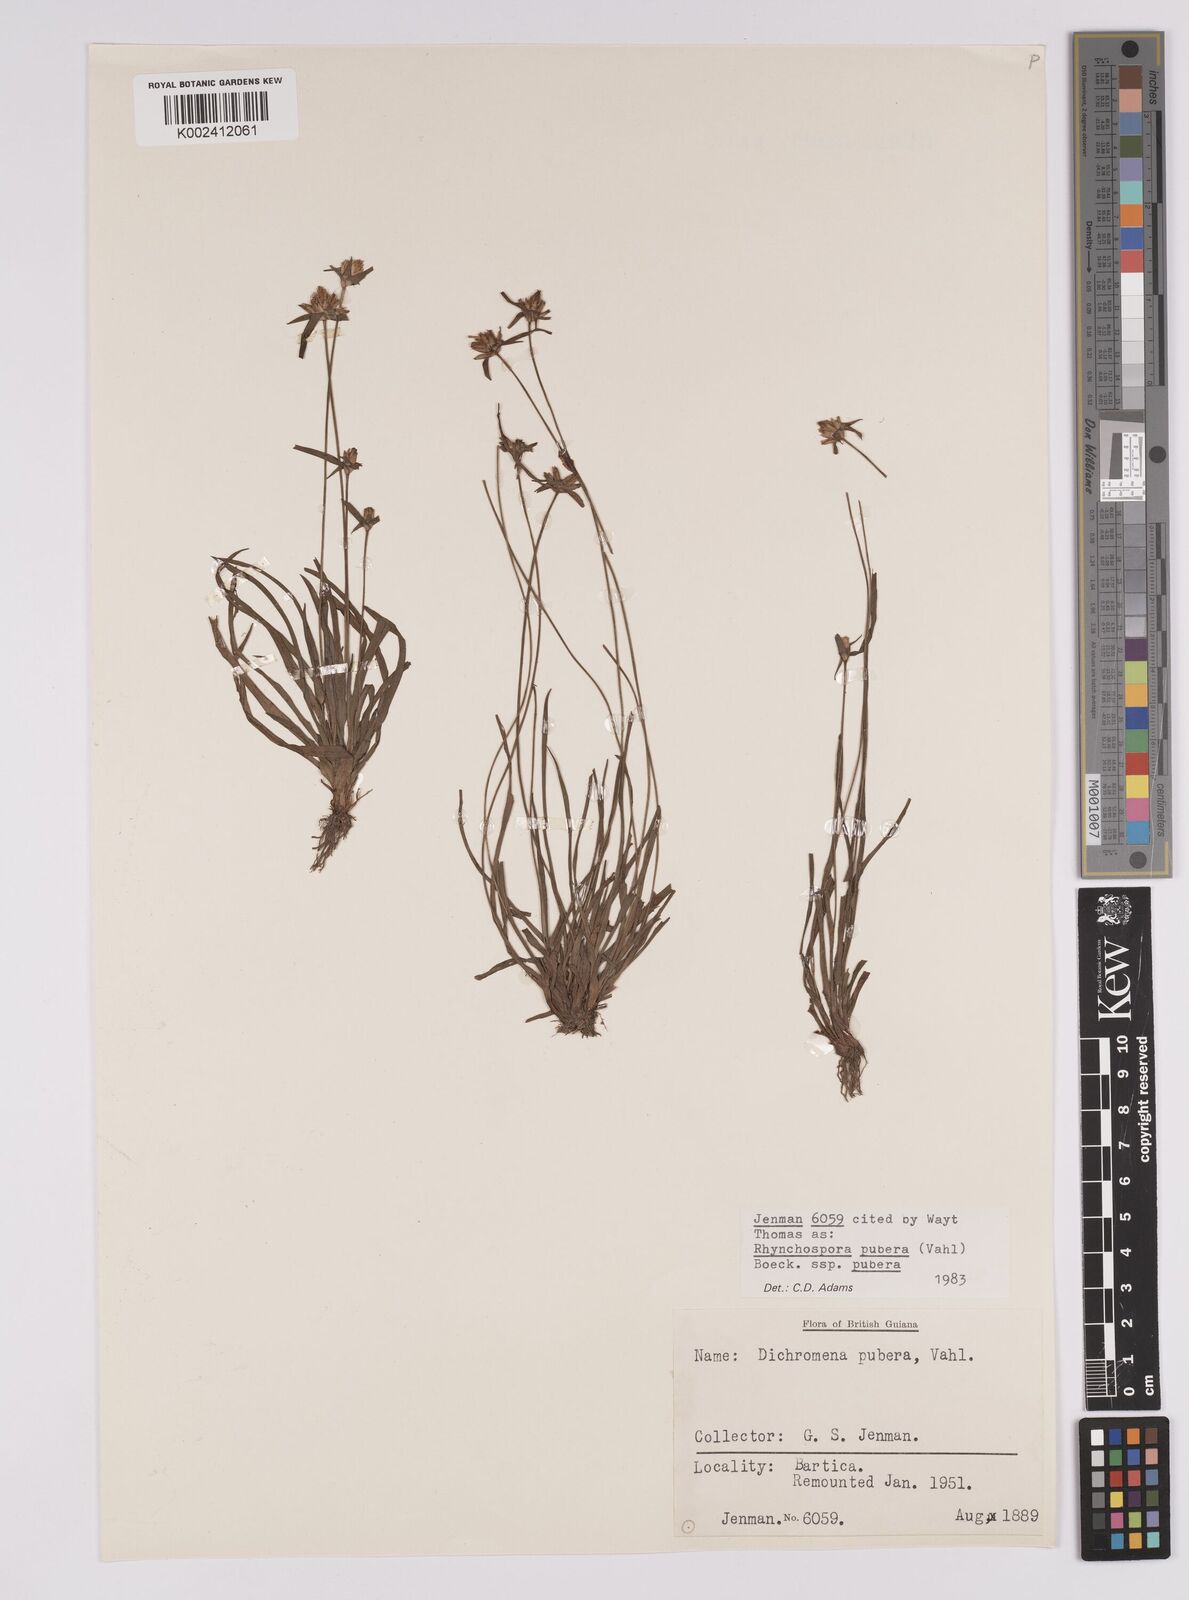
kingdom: Plantae
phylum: Tracheophyta
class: Liliopsida
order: Poales
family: Cyperaceae
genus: Rhynchospora
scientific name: Rhynchospora pubera
